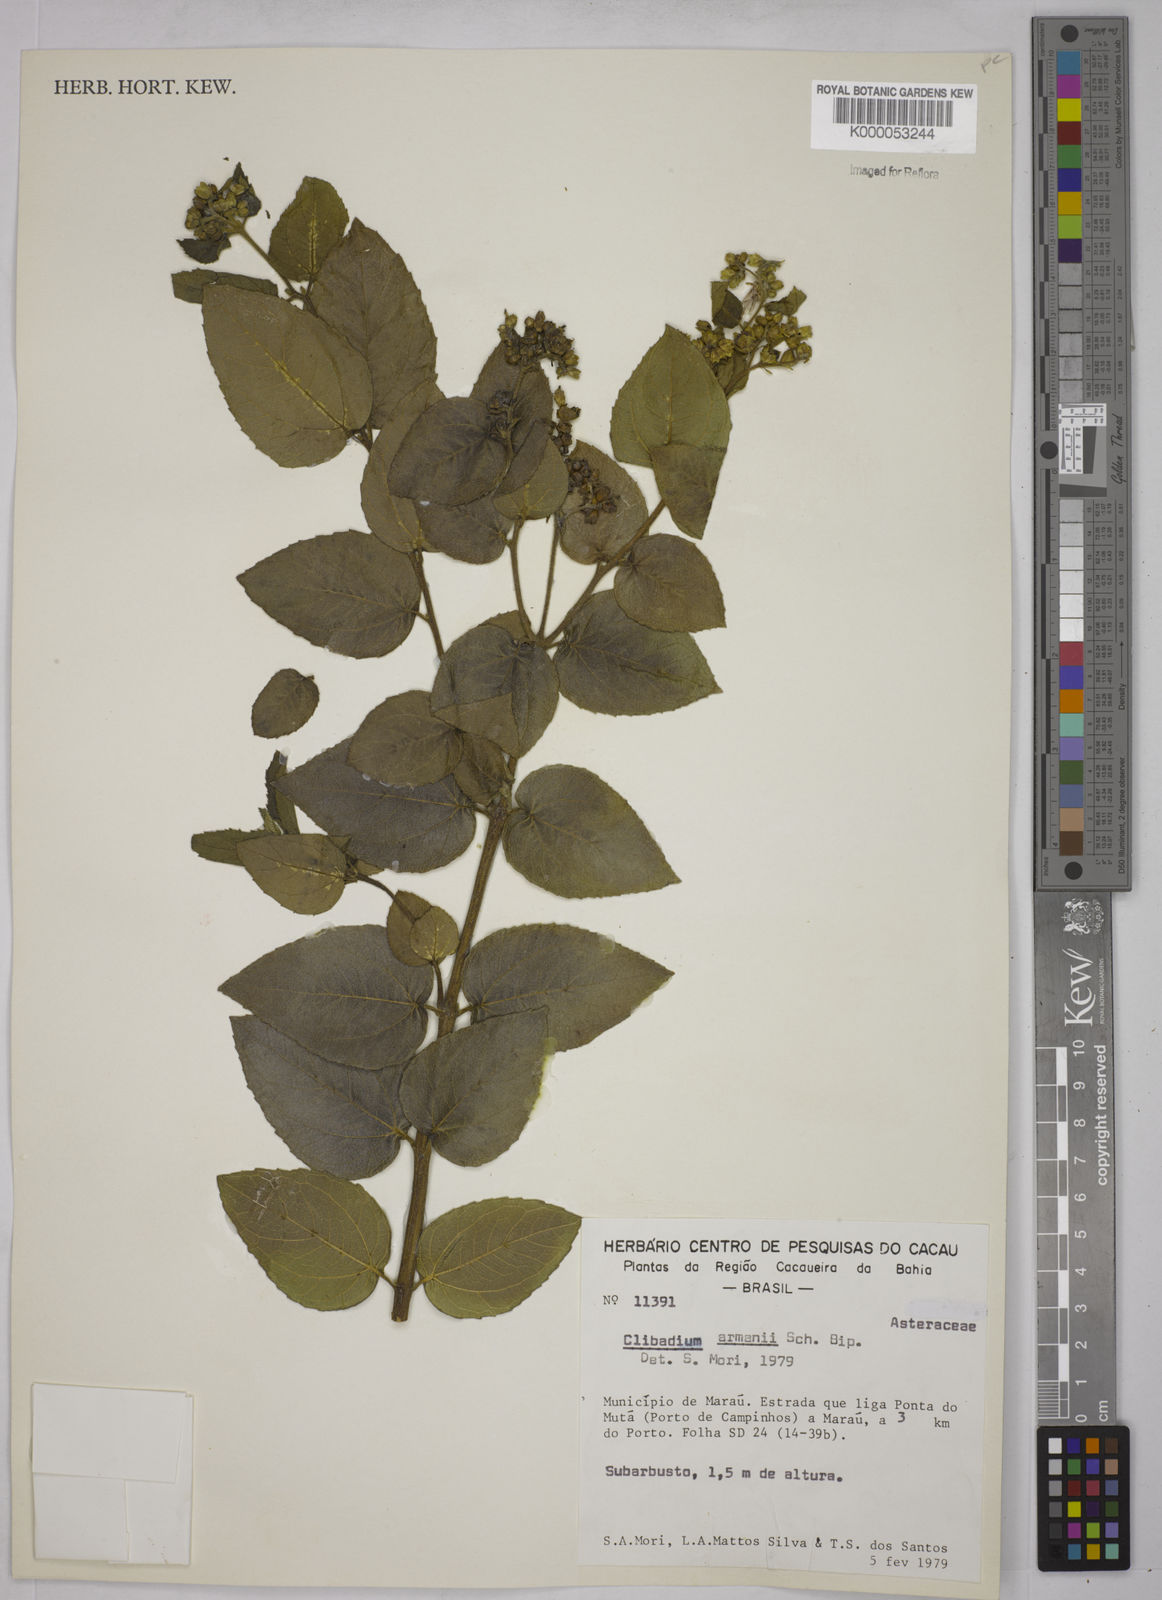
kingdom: Plantae
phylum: Tracheophyta
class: Magnoliopsida
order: Asterales
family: Asteraceae
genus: Clibadium
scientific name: Clibadium armanii
